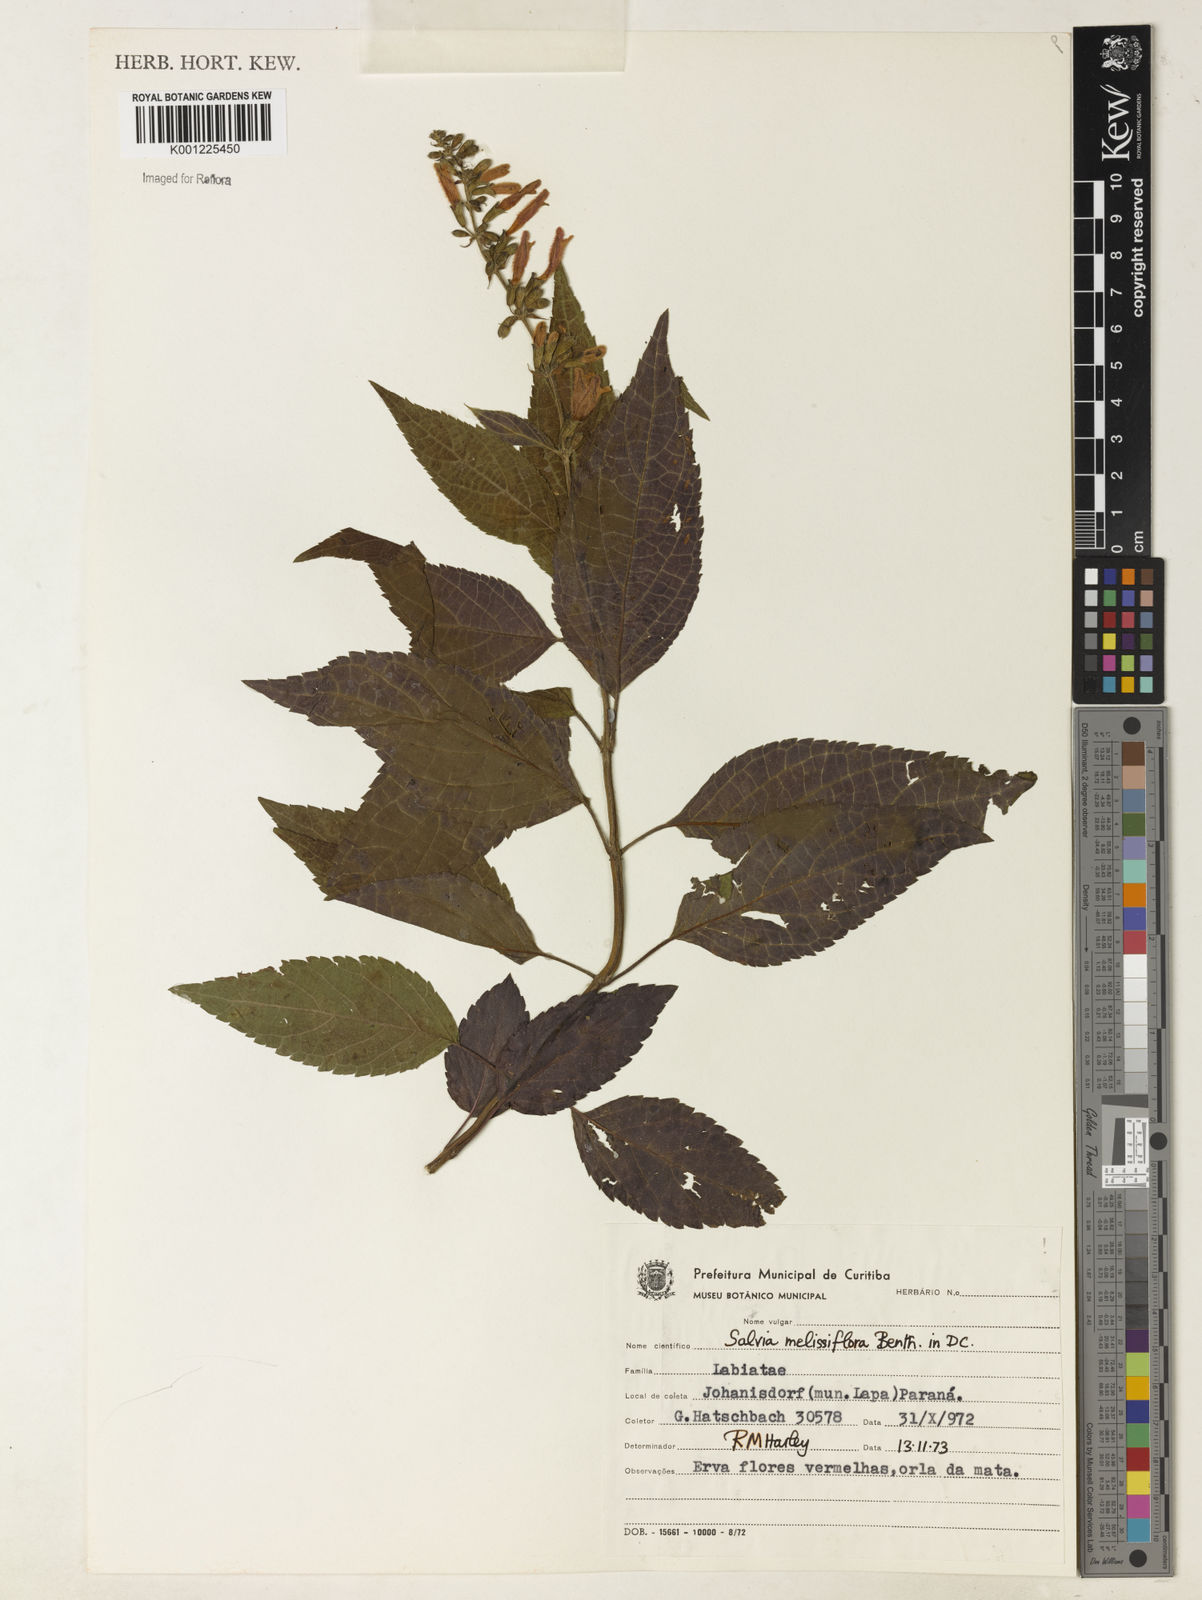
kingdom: Plantae
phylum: Tracheophyta
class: Magnoliopsida
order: Lamiales
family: Lamiaceae
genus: Salvia
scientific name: Salvia melissiflora
